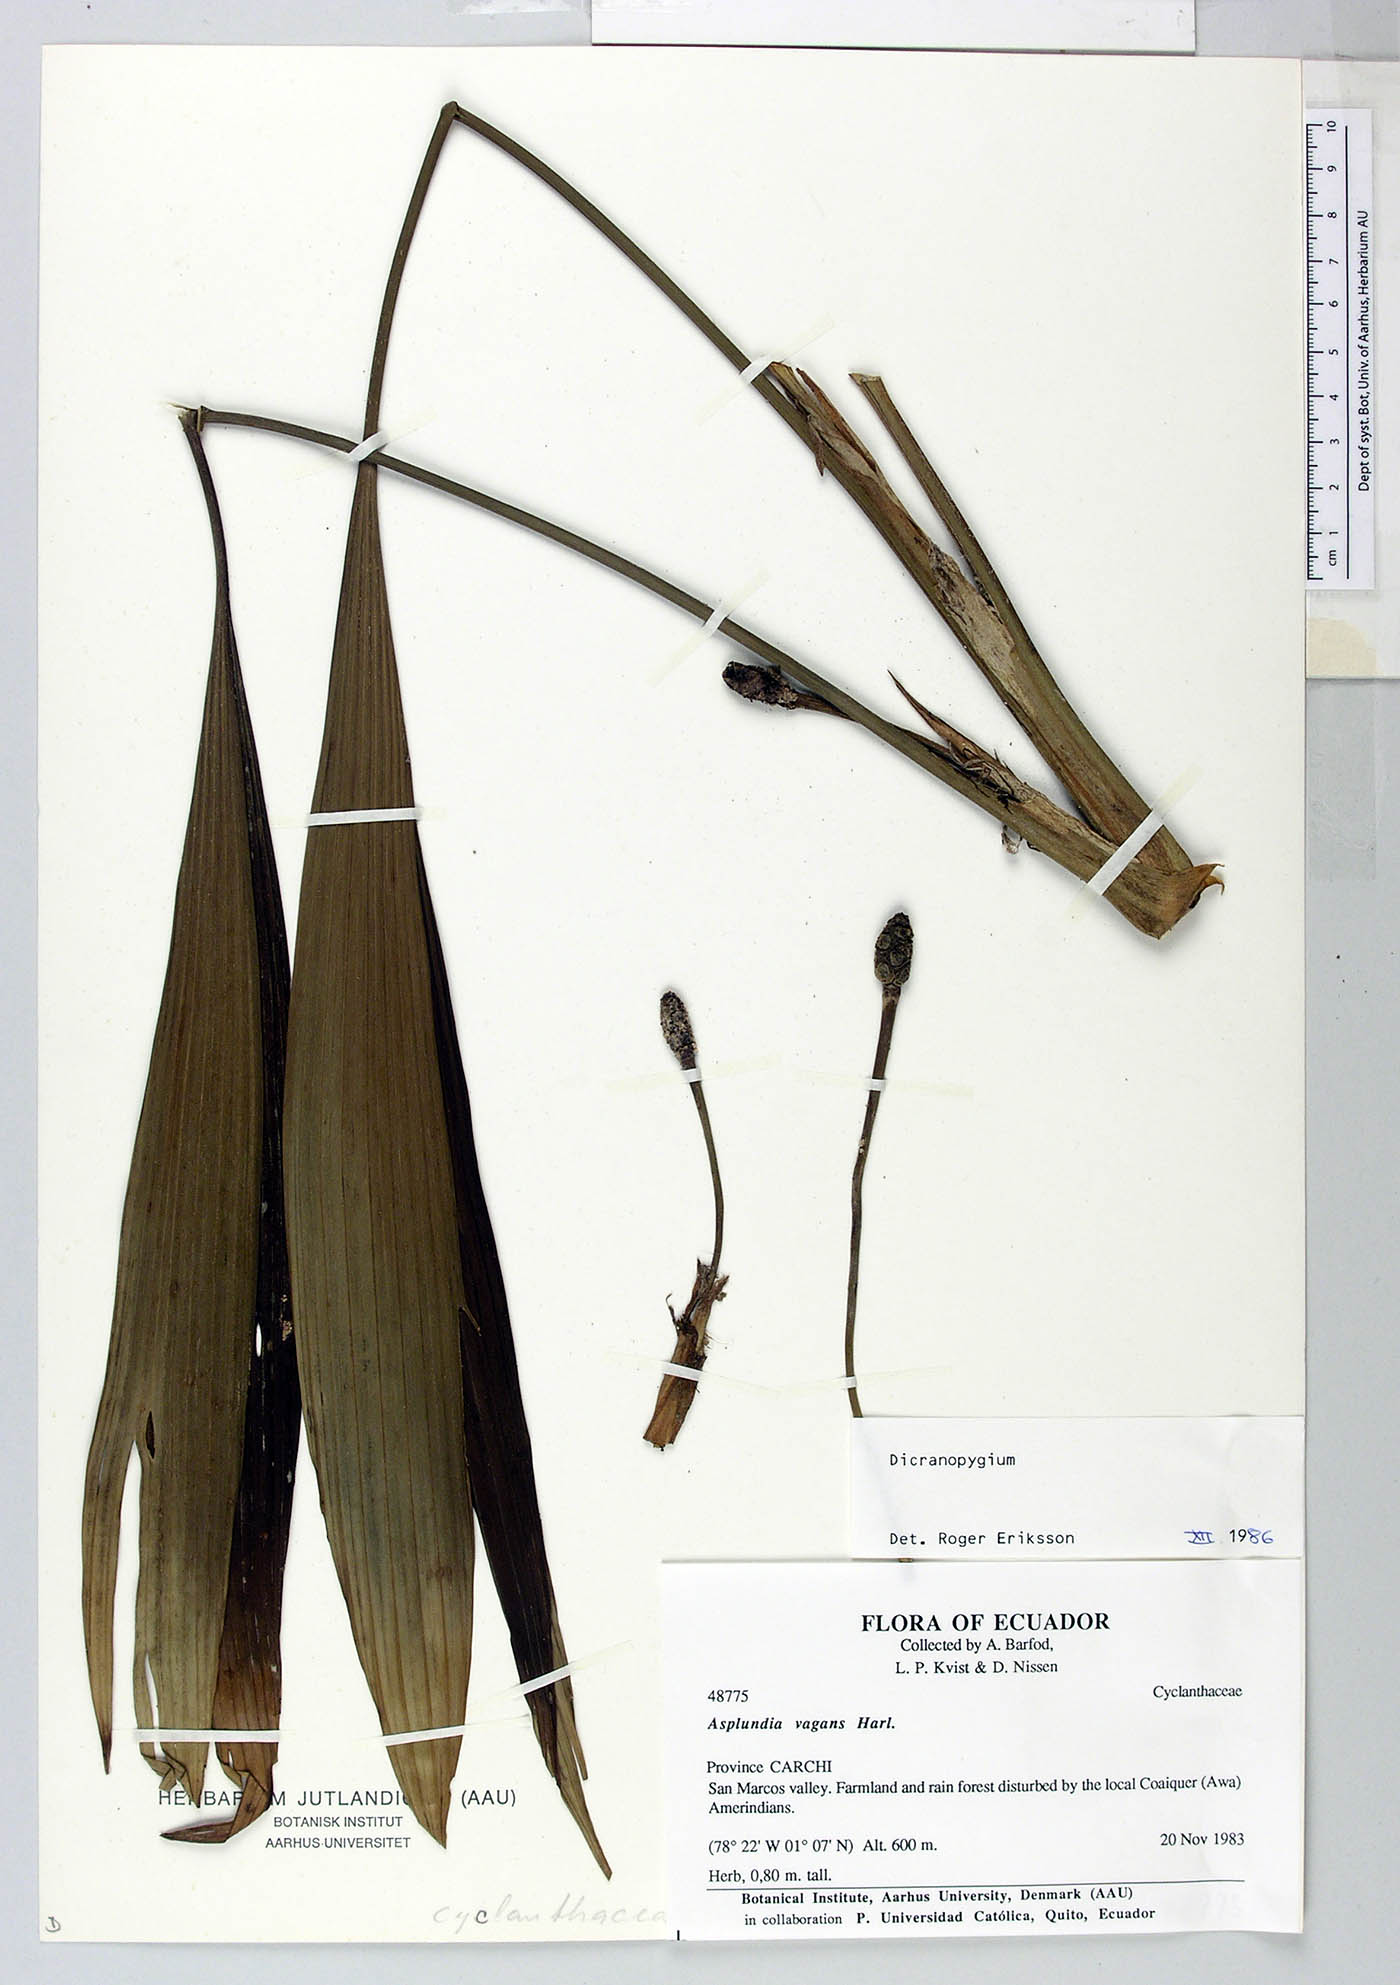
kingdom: Plantae
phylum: Tracheophyta
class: Liliopsida
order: Pandanales
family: Cyclanthaceae
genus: Dicranopygium
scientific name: Dicranopygium
